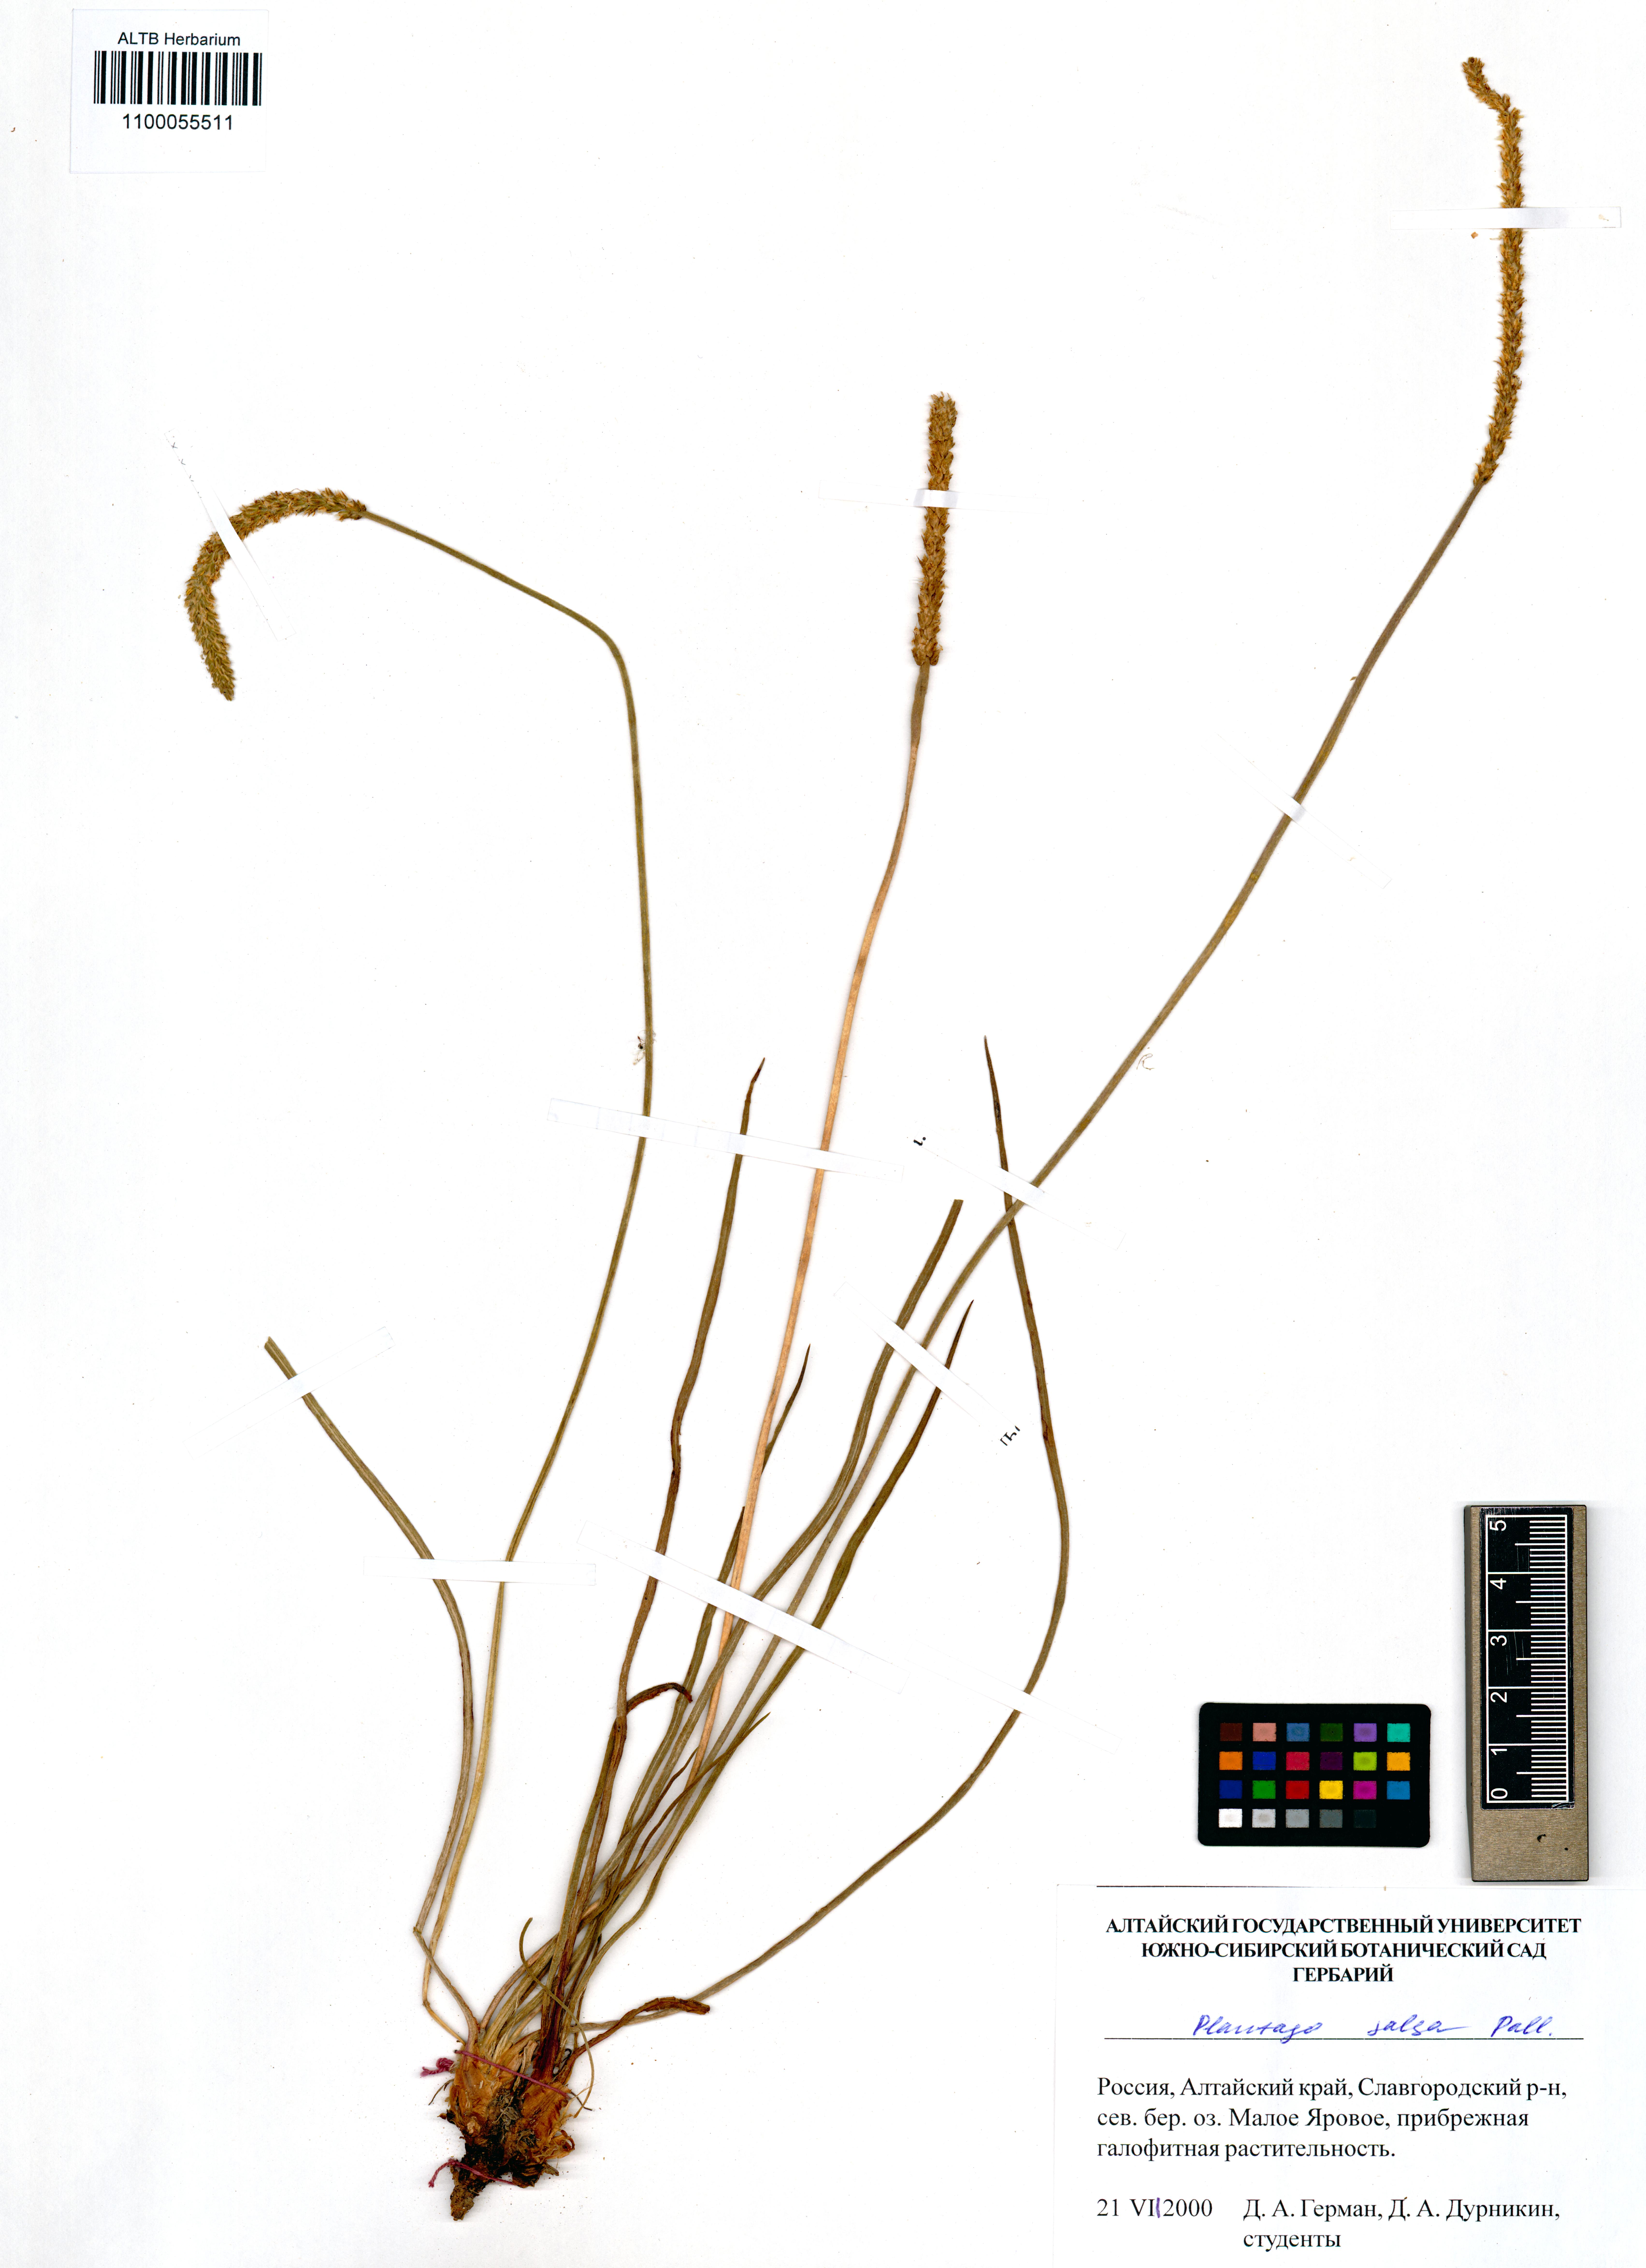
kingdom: Plantae
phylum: Tracheophyta
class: Magnoliopsida
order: Lamiales
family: Plantaginaceae
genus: Plantago
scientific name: Plantago salsa
